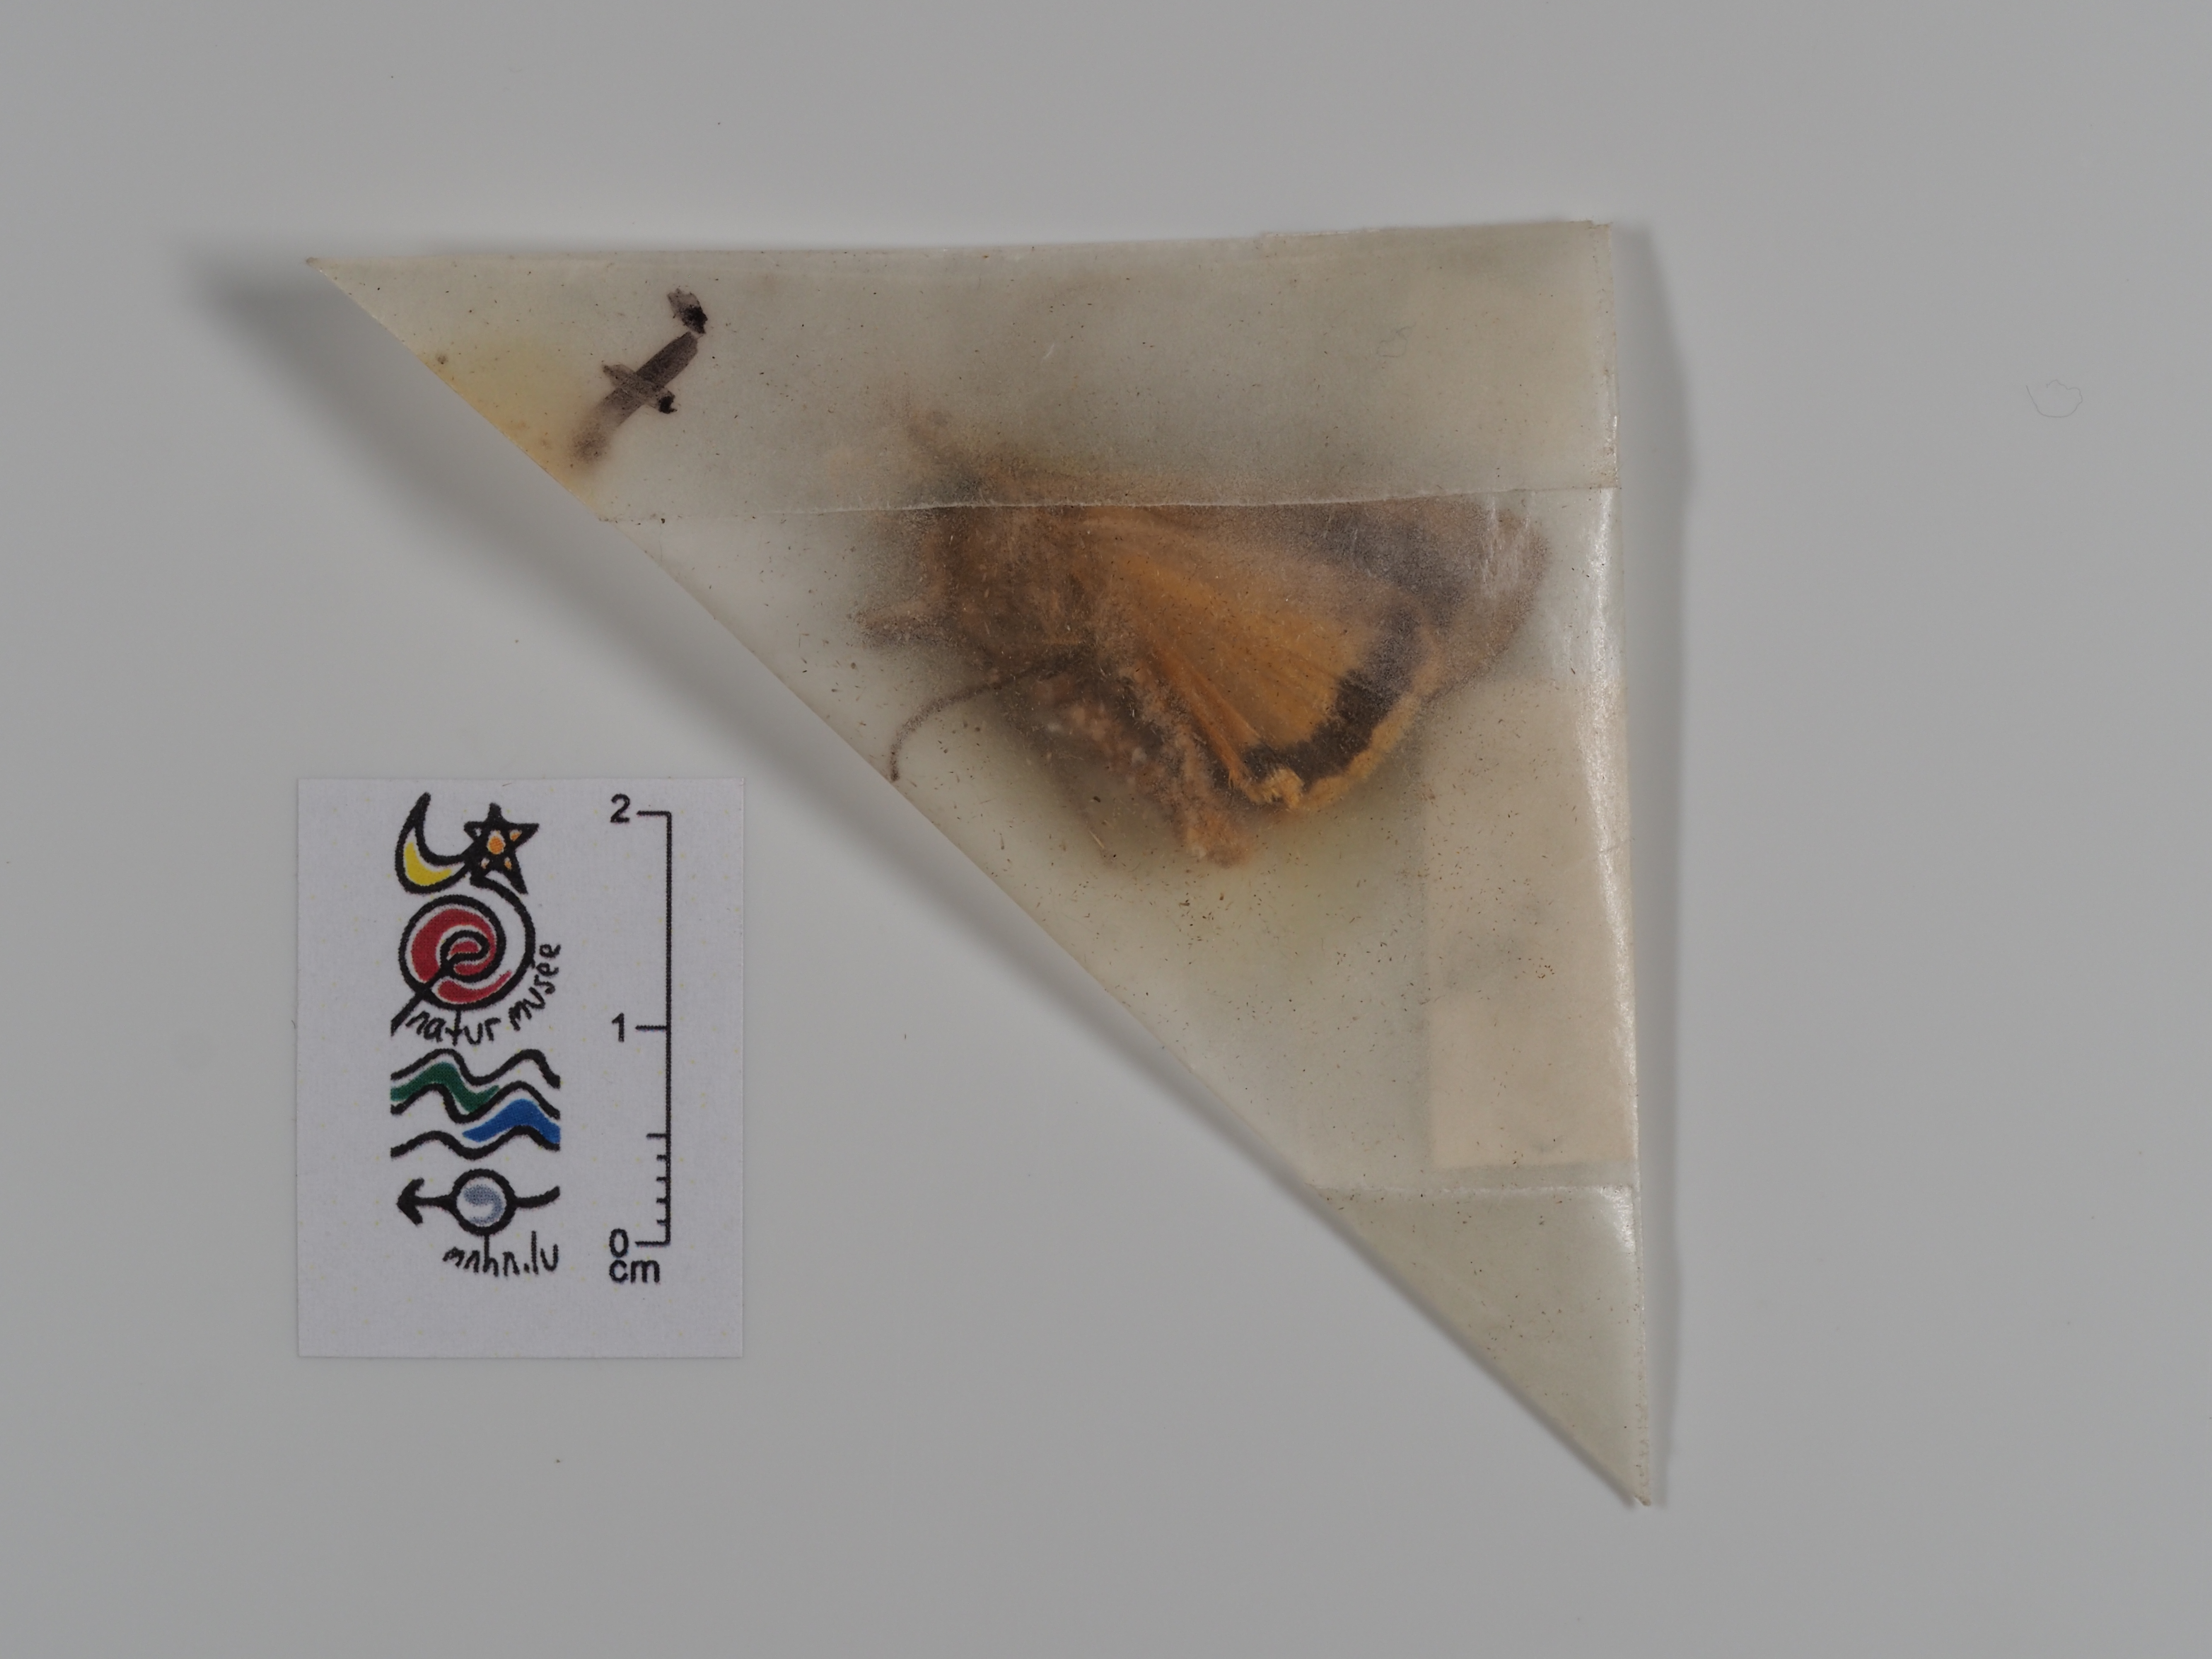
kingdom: Animalia
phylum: Arthropoda
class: Insecta
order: Lepidoptera
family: Noctuidae
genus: Noctua
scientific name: Noctua pronuba
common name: Large yellow underwing
